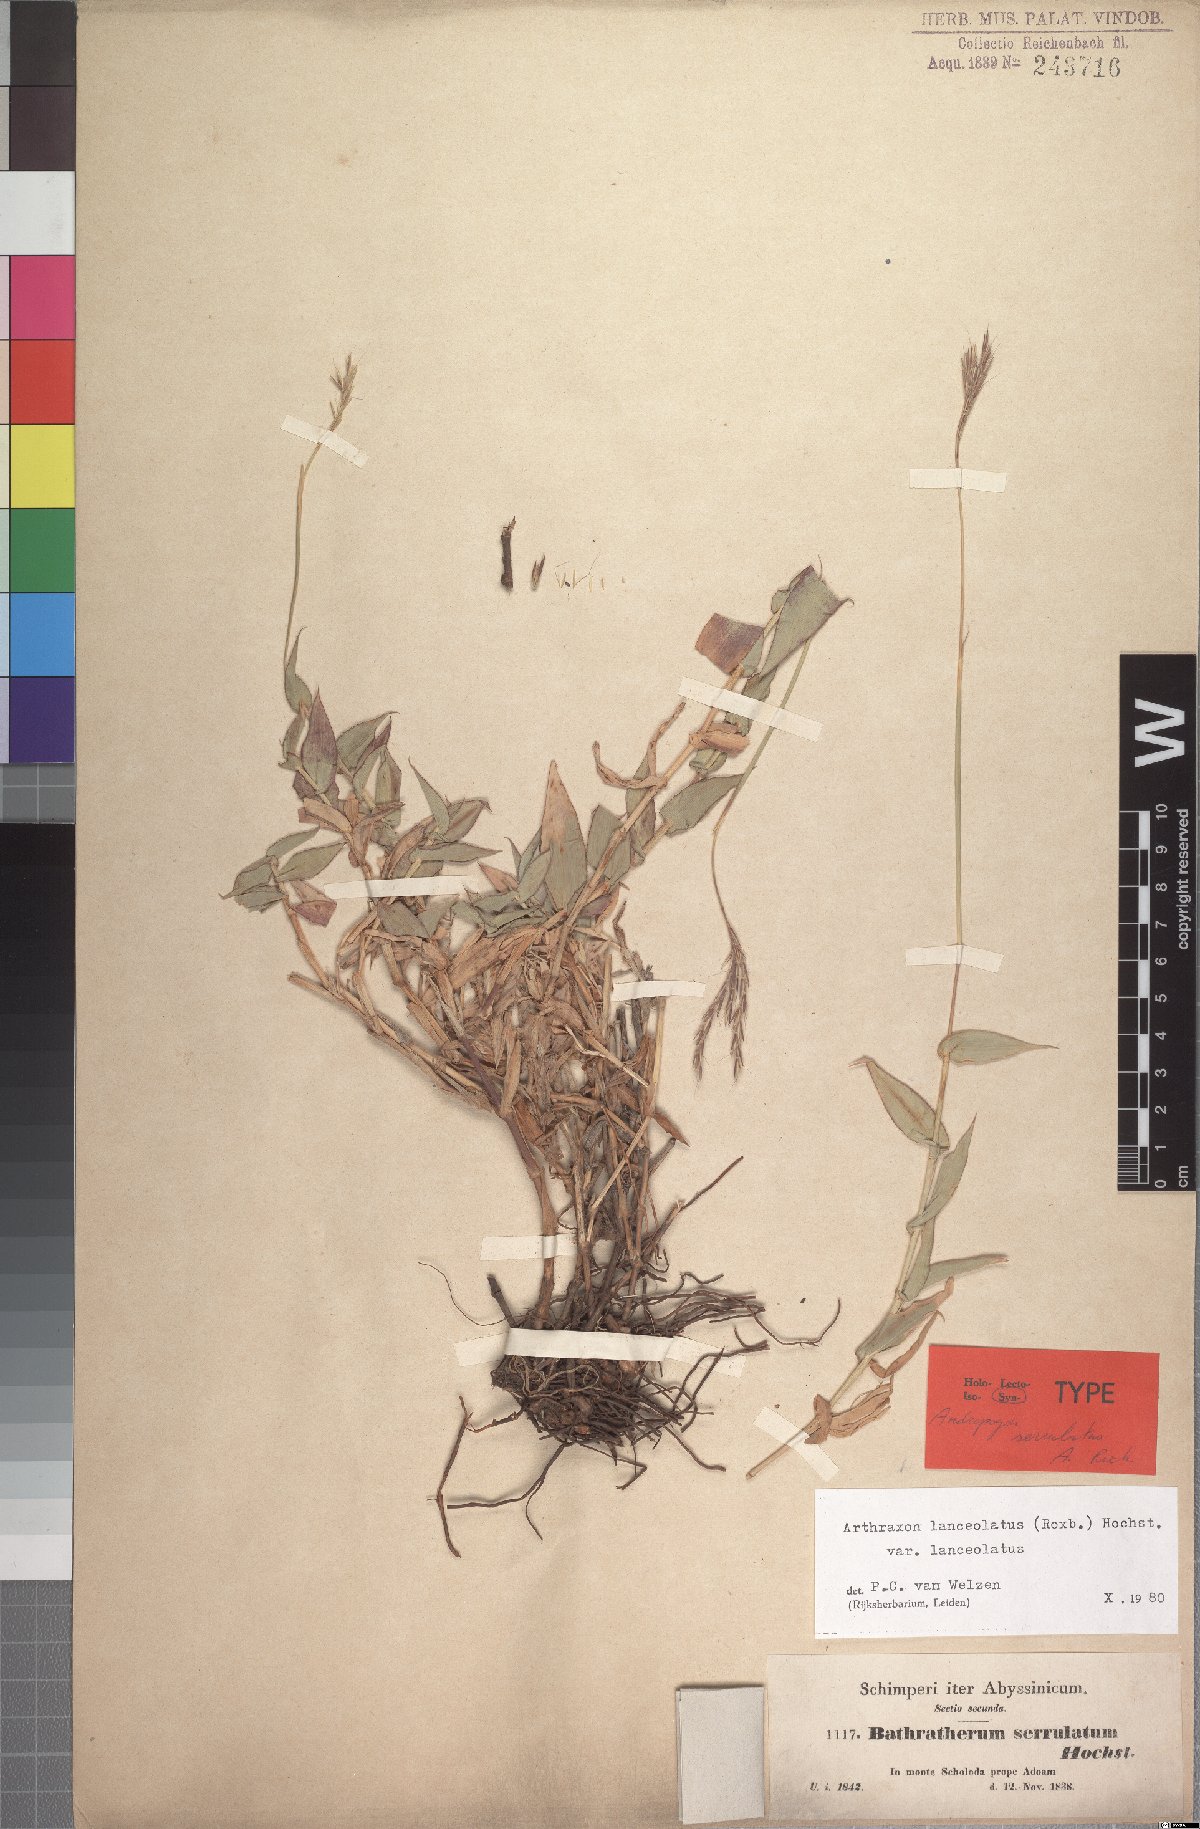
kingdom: Plantae
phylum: Tracheophyta
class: Liliopsida
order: Poales
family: Poaceae
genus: Arthraxon
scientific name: Arthraxon lanceolatus
